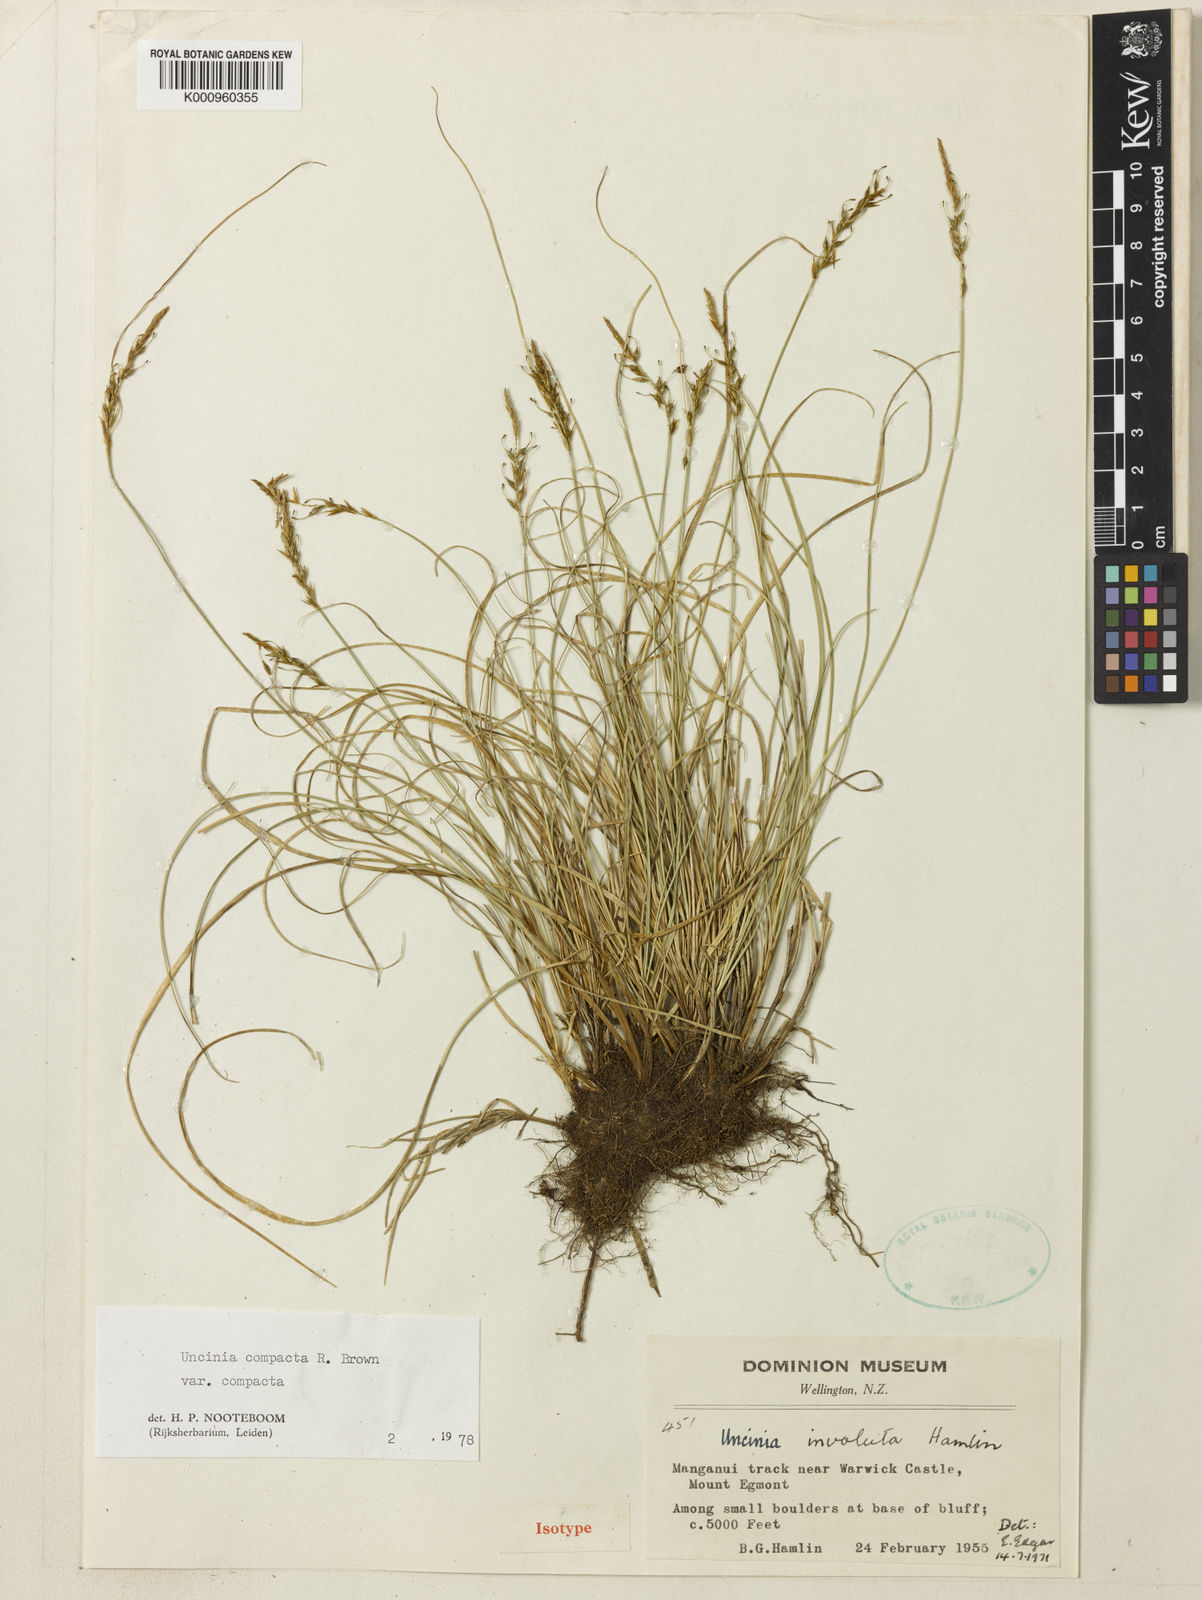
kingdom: Plantae
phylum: Tracheophyta
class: Liliopsida
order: Poales
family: Cyperaceae
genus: Carex
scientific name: Carex crispa
